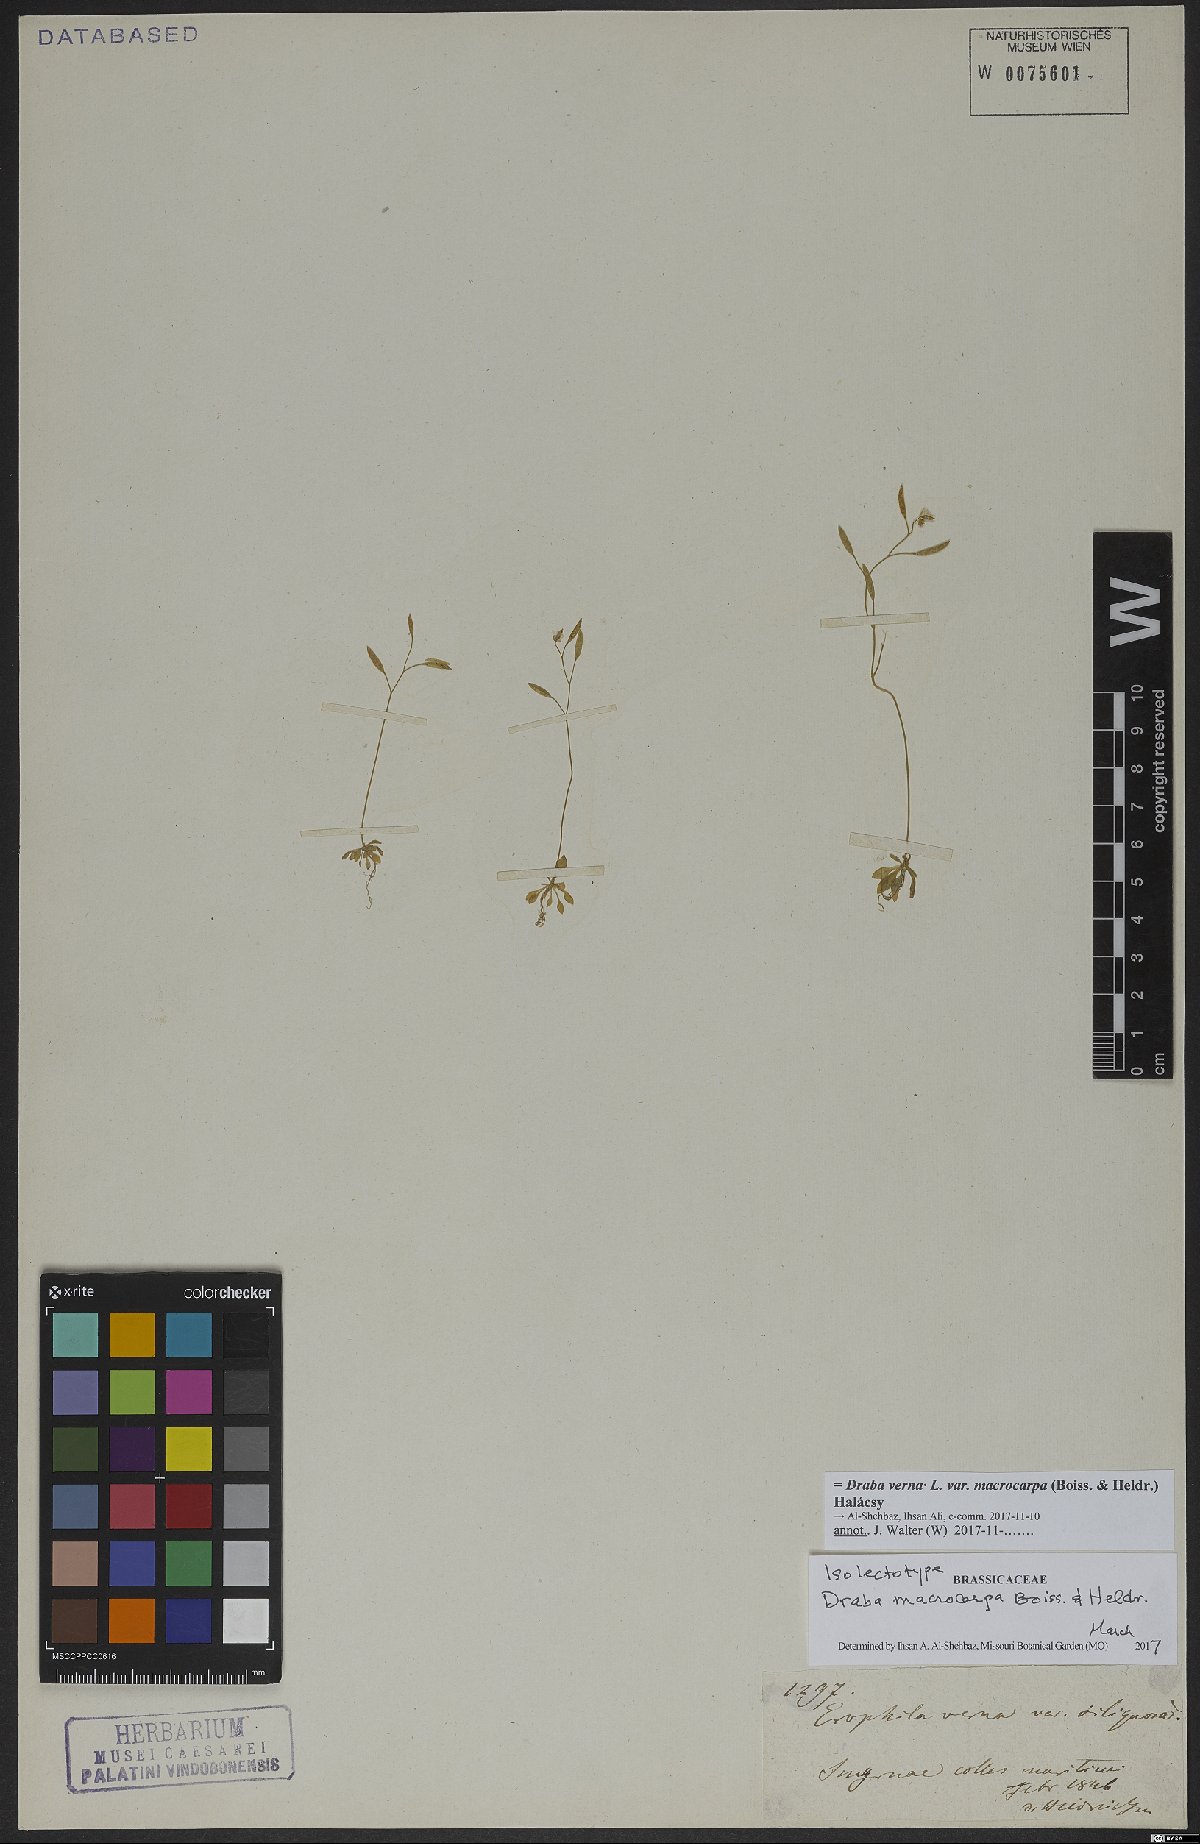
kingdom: Plantae
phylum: Tracheophyta
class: Magnoliopsida
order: Brassicales
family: Brassicaceae
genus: Draba
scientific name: Draba verna
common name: Spring draba
